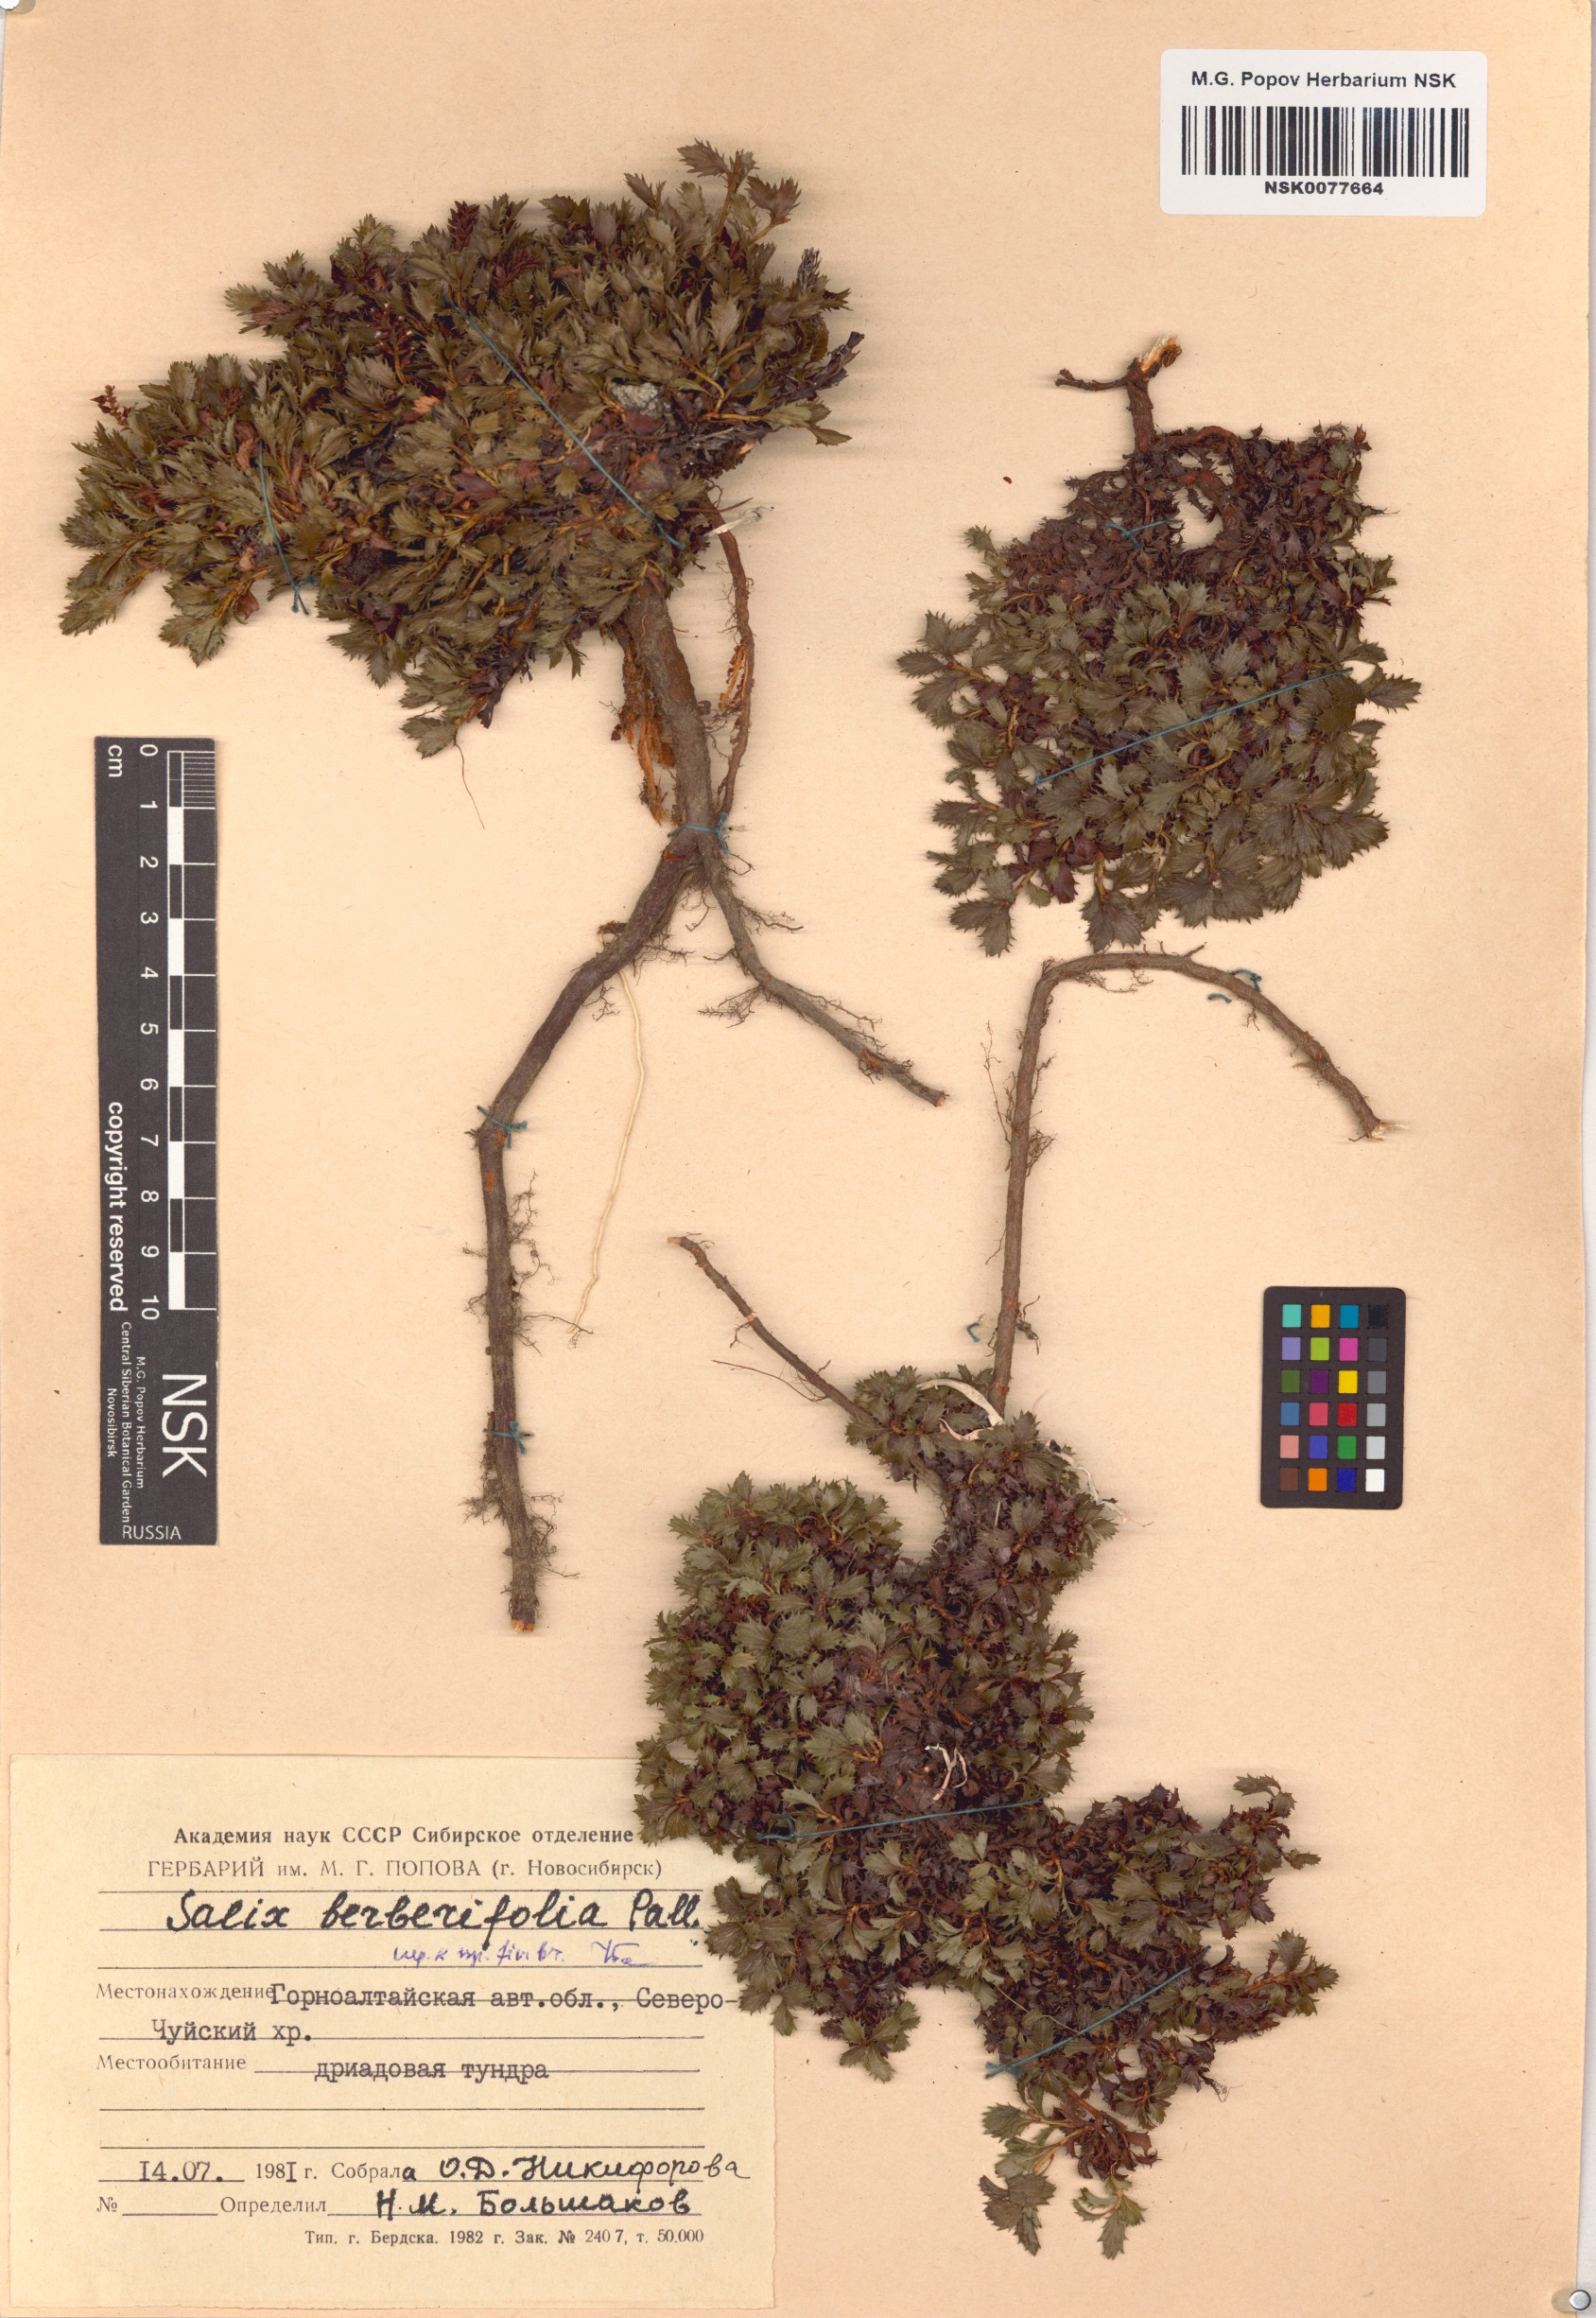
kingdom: Plantae
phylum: Tracheophyta
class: Magnoliopsida
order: Malpighiales
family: Salicaceae
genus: Salix
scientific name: Salix berberifolia
